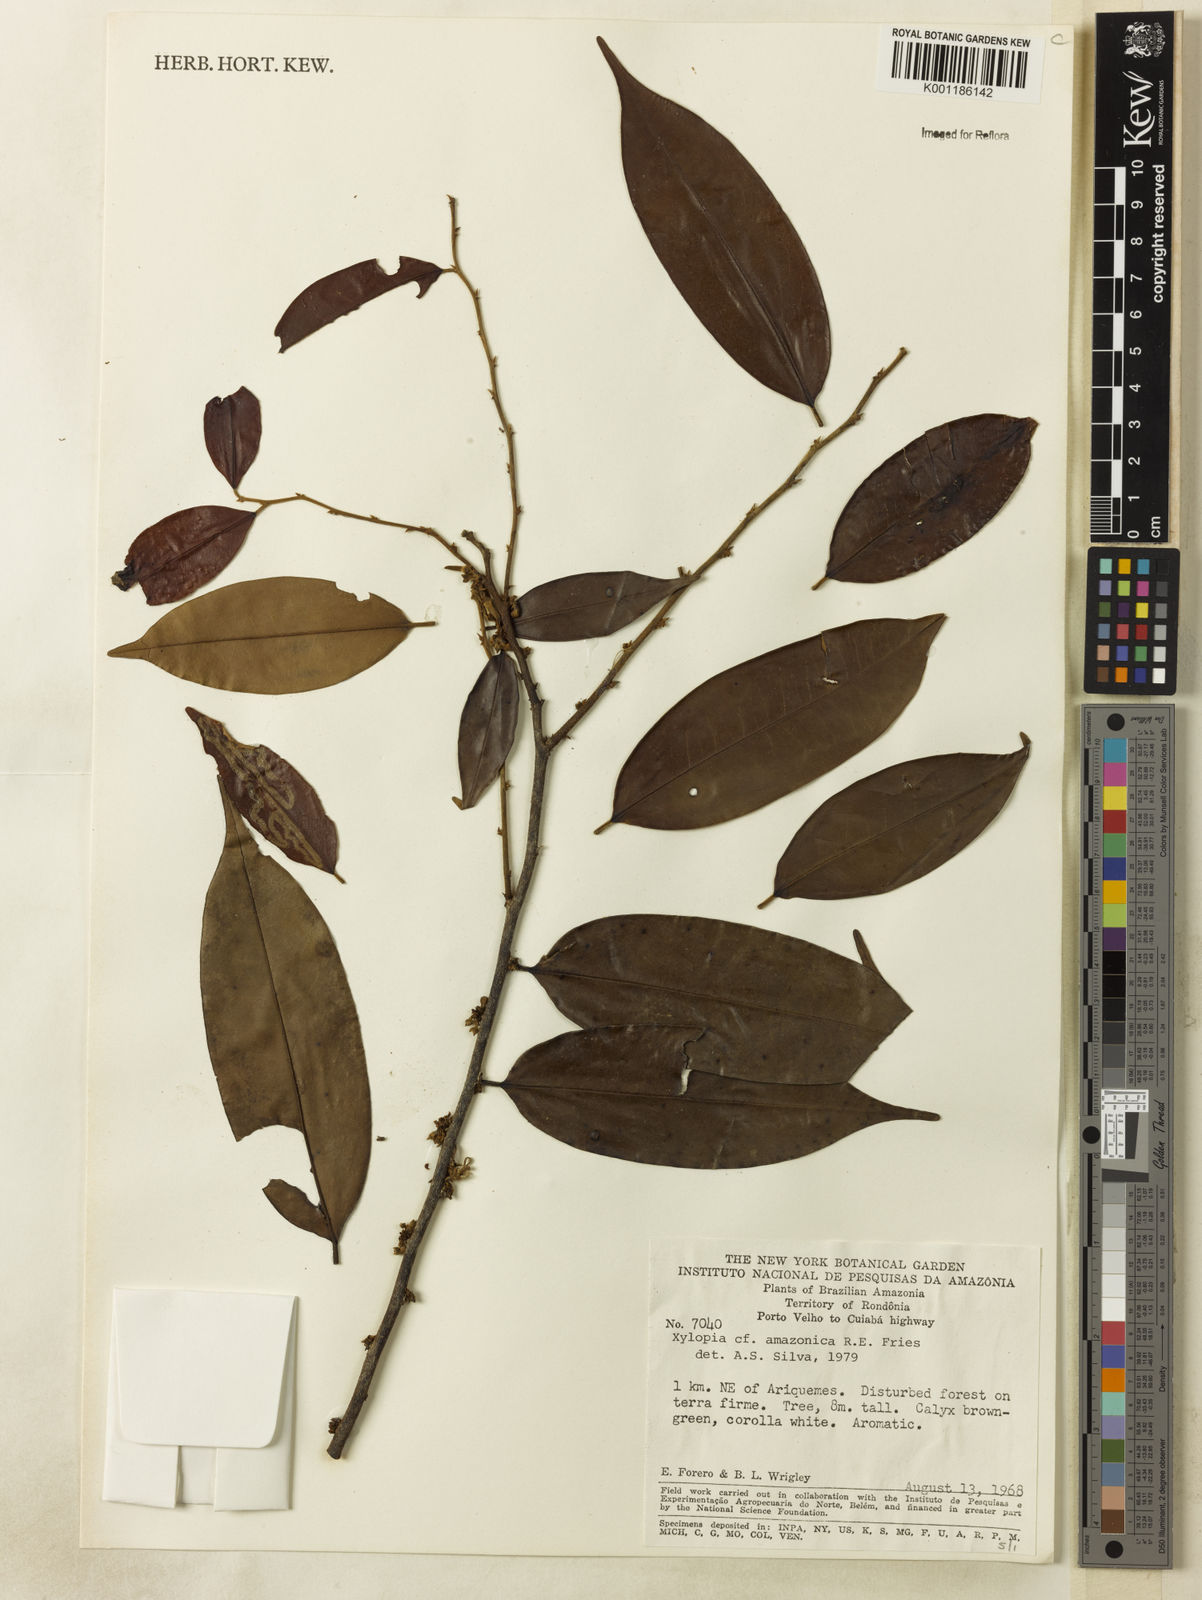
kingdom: Plantae
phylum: Tracheophyta
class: Magnoliopsida
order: Magnoliales
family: Annonaceae
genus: Xylopia
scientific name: Xylopia amazonica
